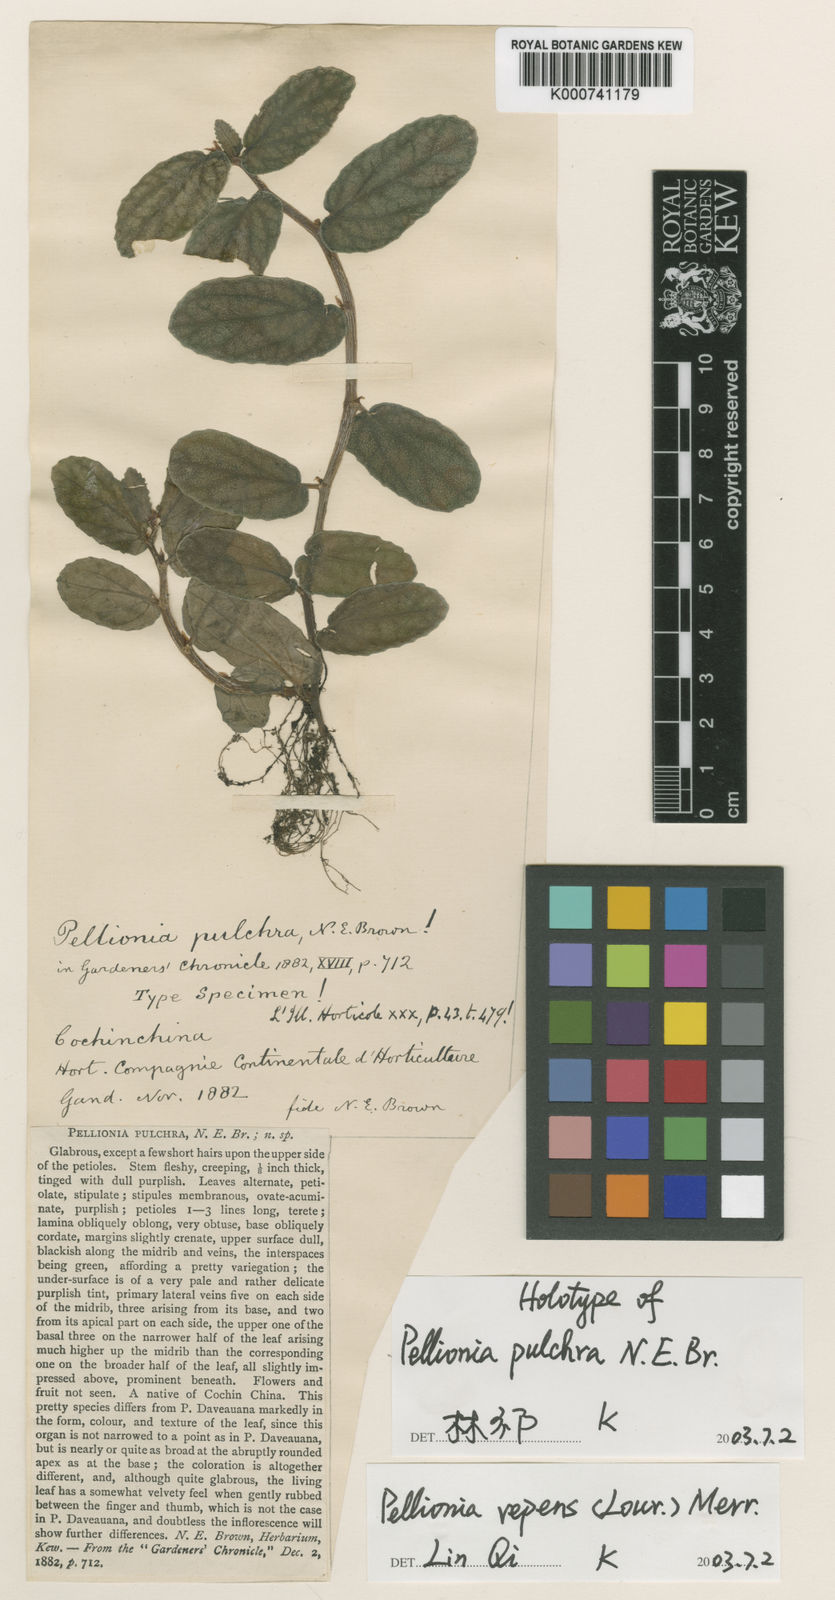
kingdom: Plantae
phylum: Tracheophyta
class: Magnoliopsida
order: Rosales
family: Urticaceae
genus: Procris
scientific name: Procris repens
